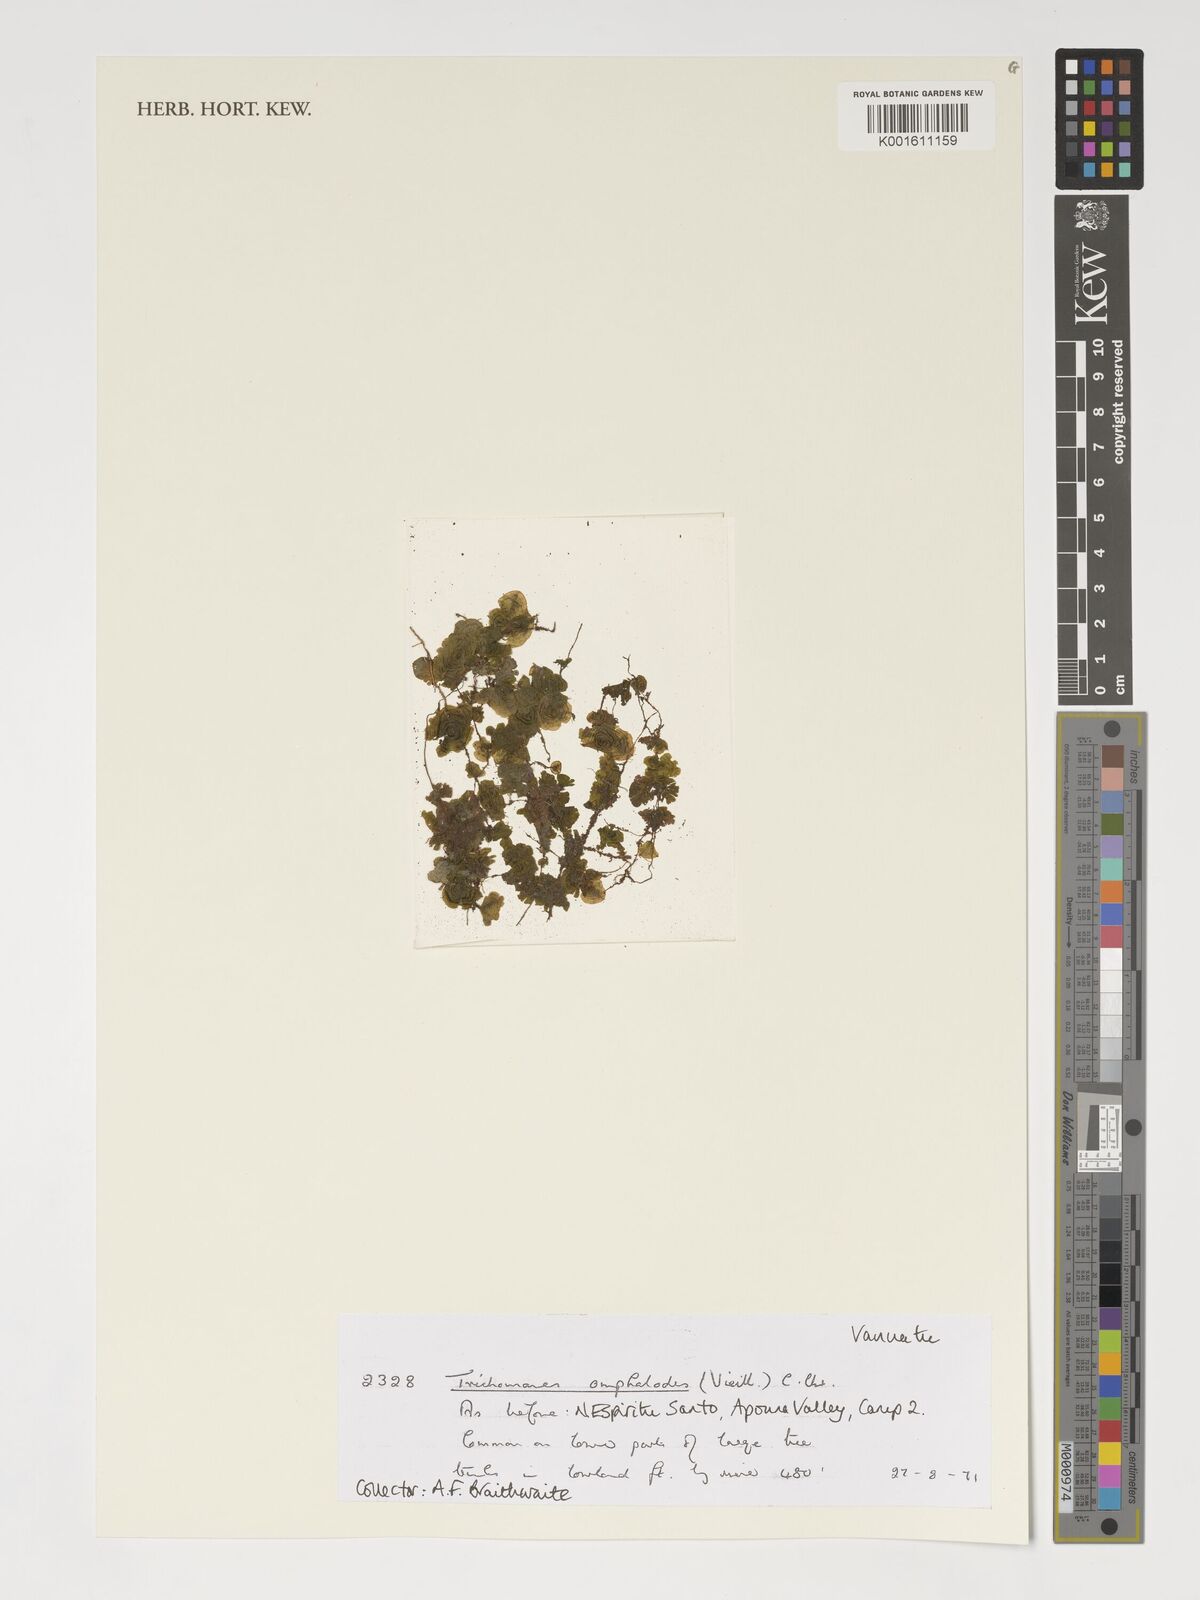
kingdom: Plantae
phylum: Tracheophyta
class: Polypodiopsida
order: Hymenophyllales
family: Hymenophyllaceae
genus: Didymoglossum
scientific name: Didymoglossum tahitense
